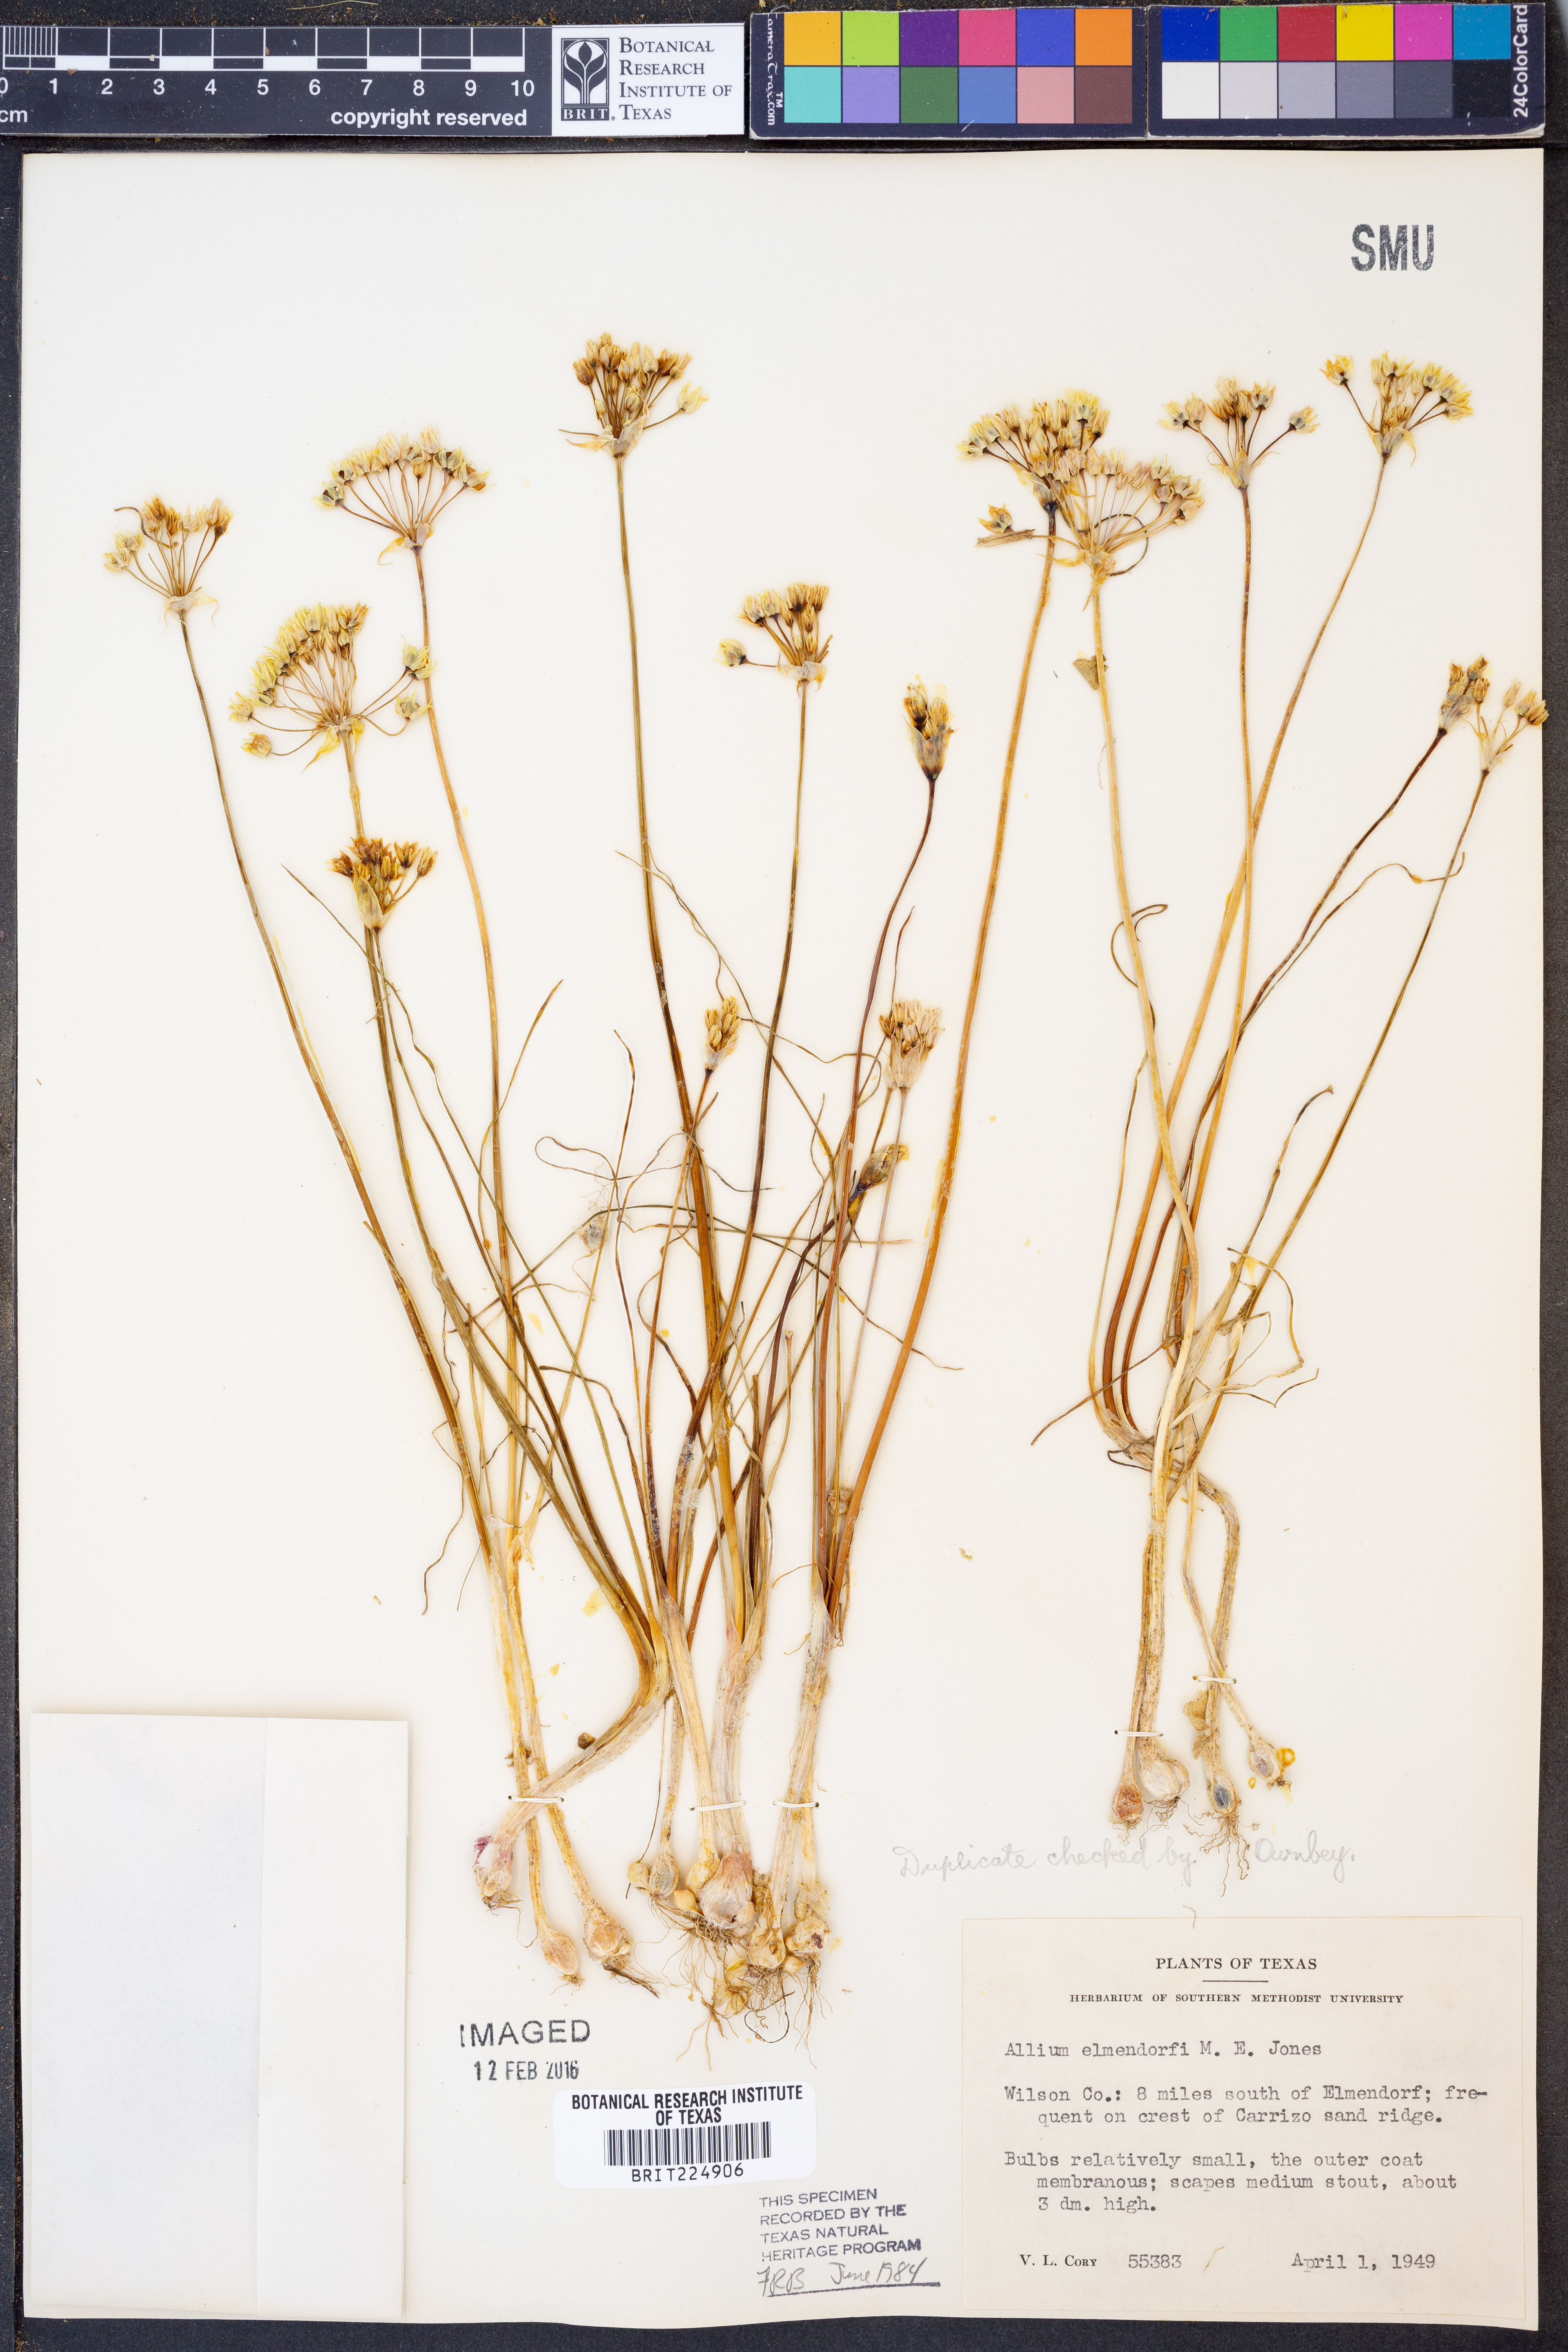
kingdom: Plantae
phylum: Tracheophyta
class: Liliopsida
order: Asparagales
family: Amaryllidaceae
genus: Allium
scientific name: Allium elmendorfii
